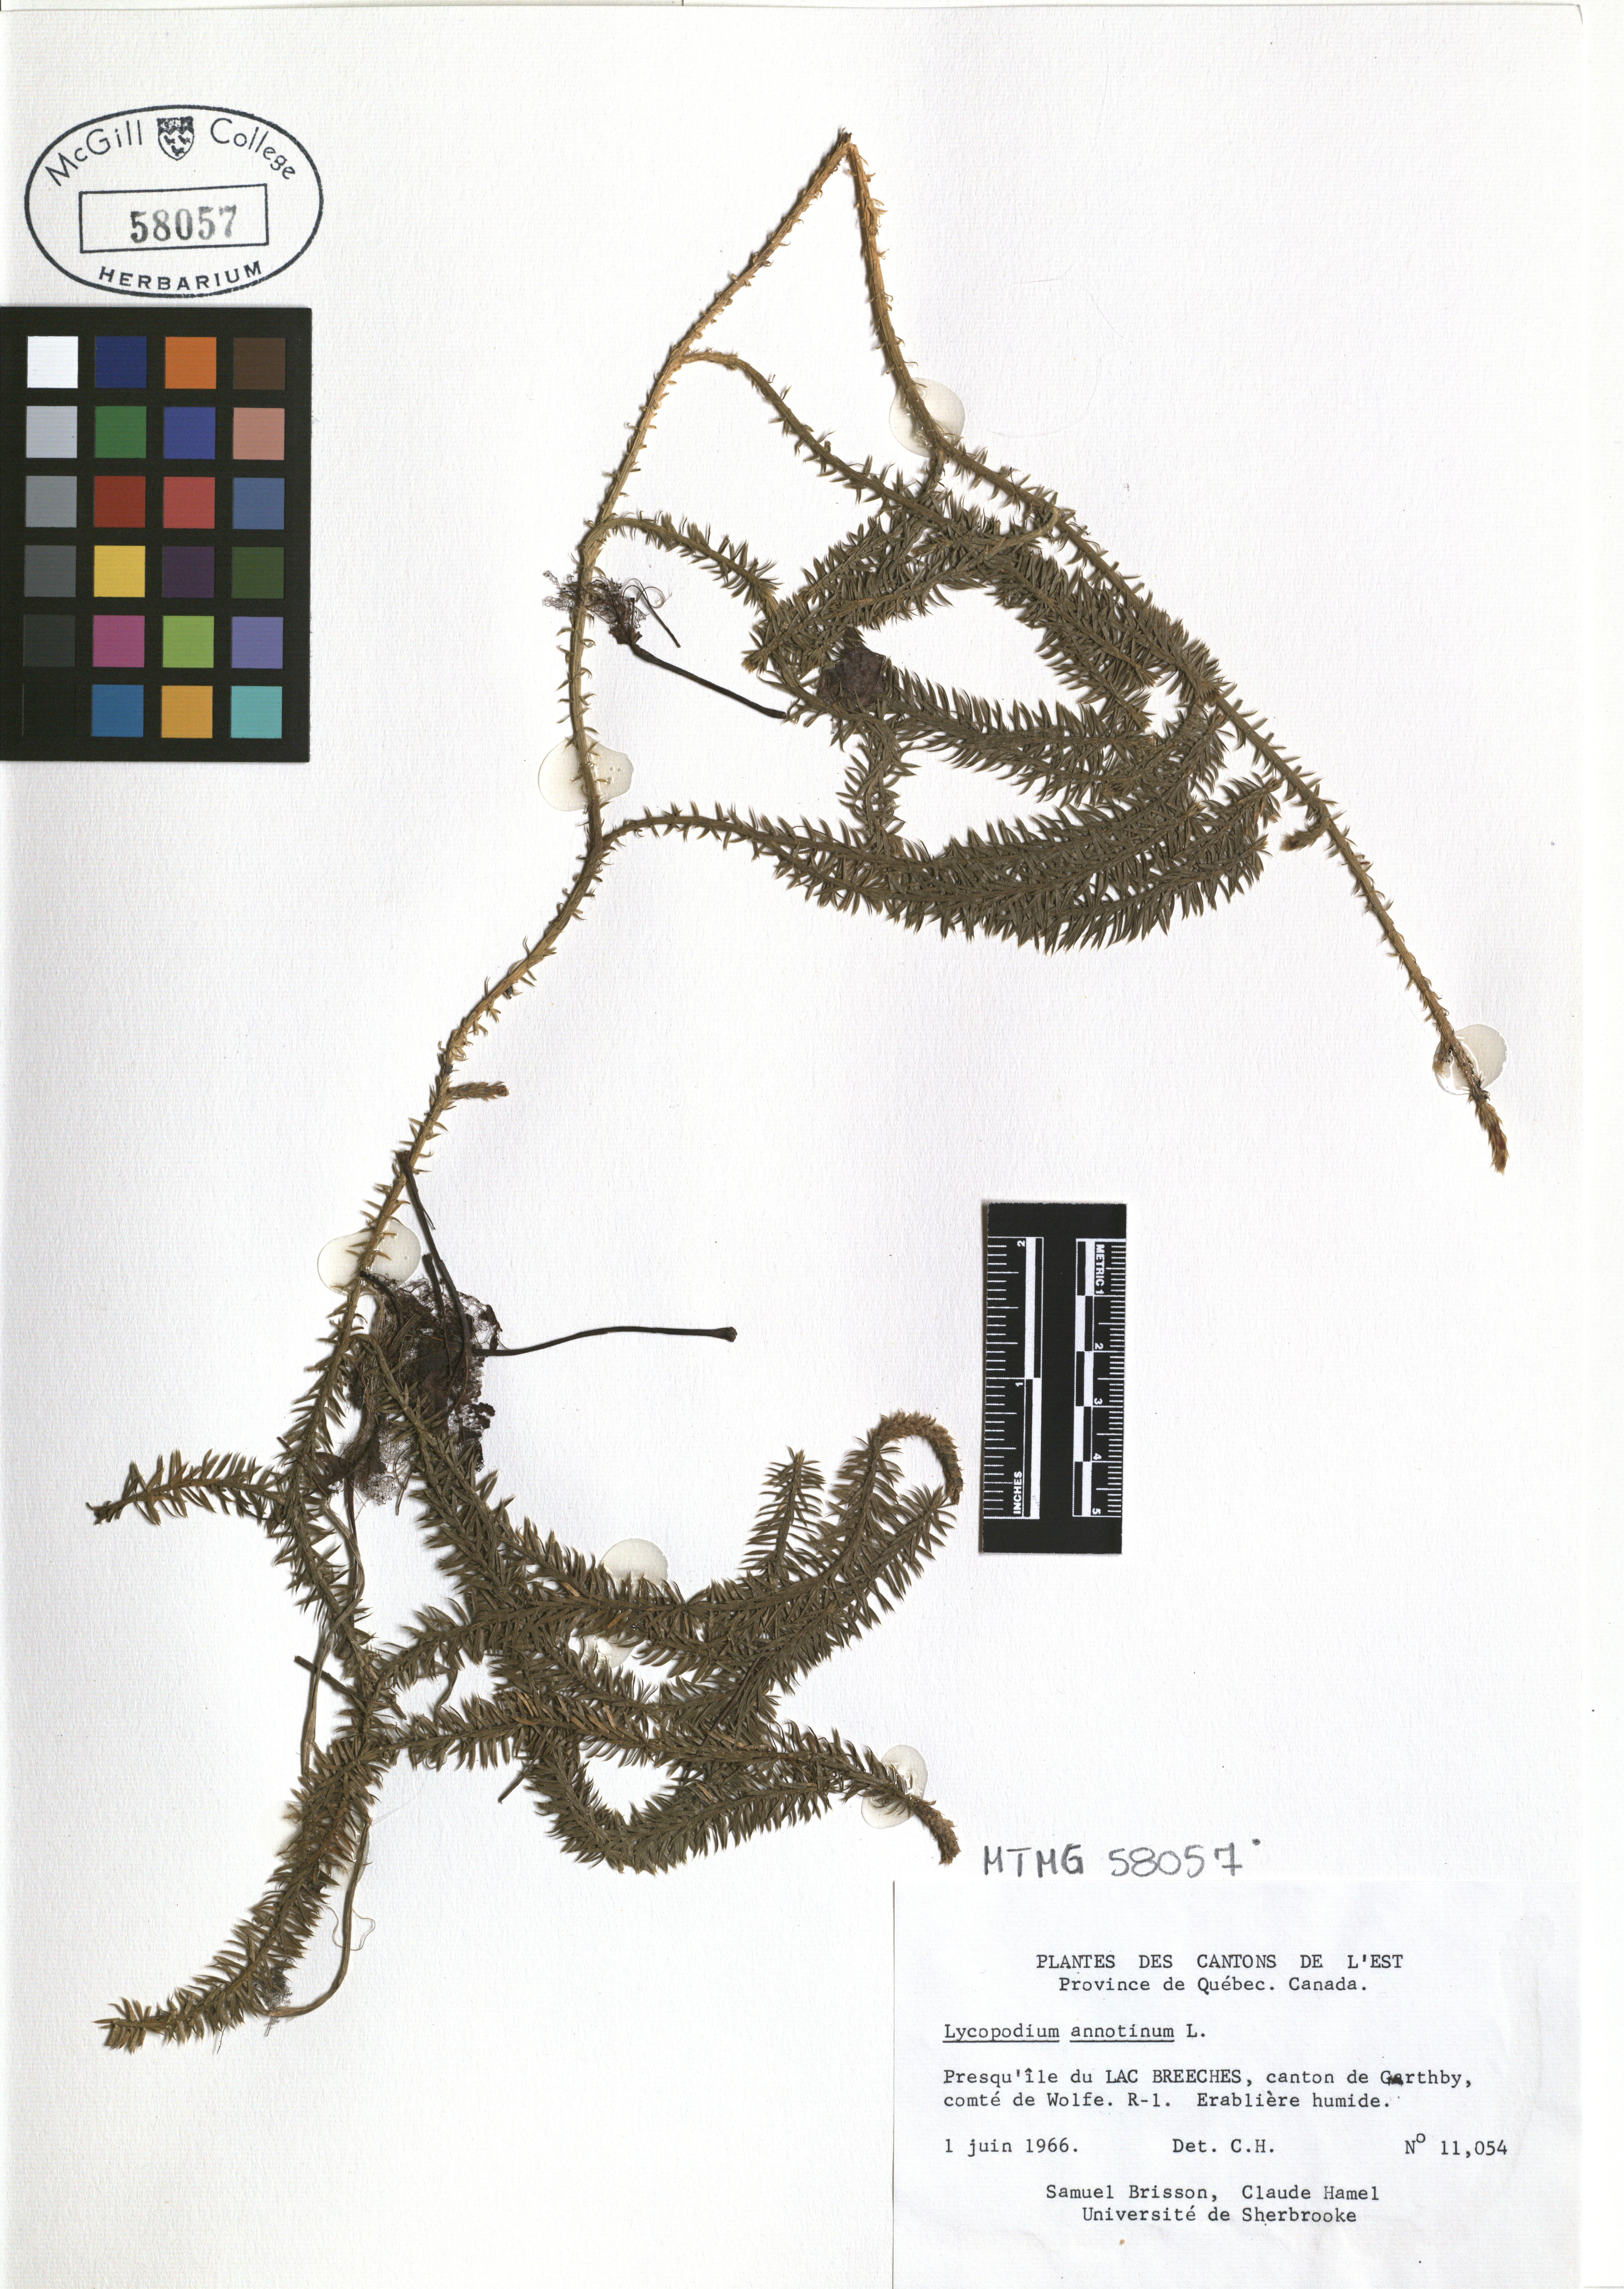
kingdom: Plantae
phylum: Tracheophyta
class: Lycopodiopsida
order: Lycopodiales
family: Lycopodiaceae
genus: Spinulum
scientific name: Spinulum annotinum
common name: Interrupted club-moss
